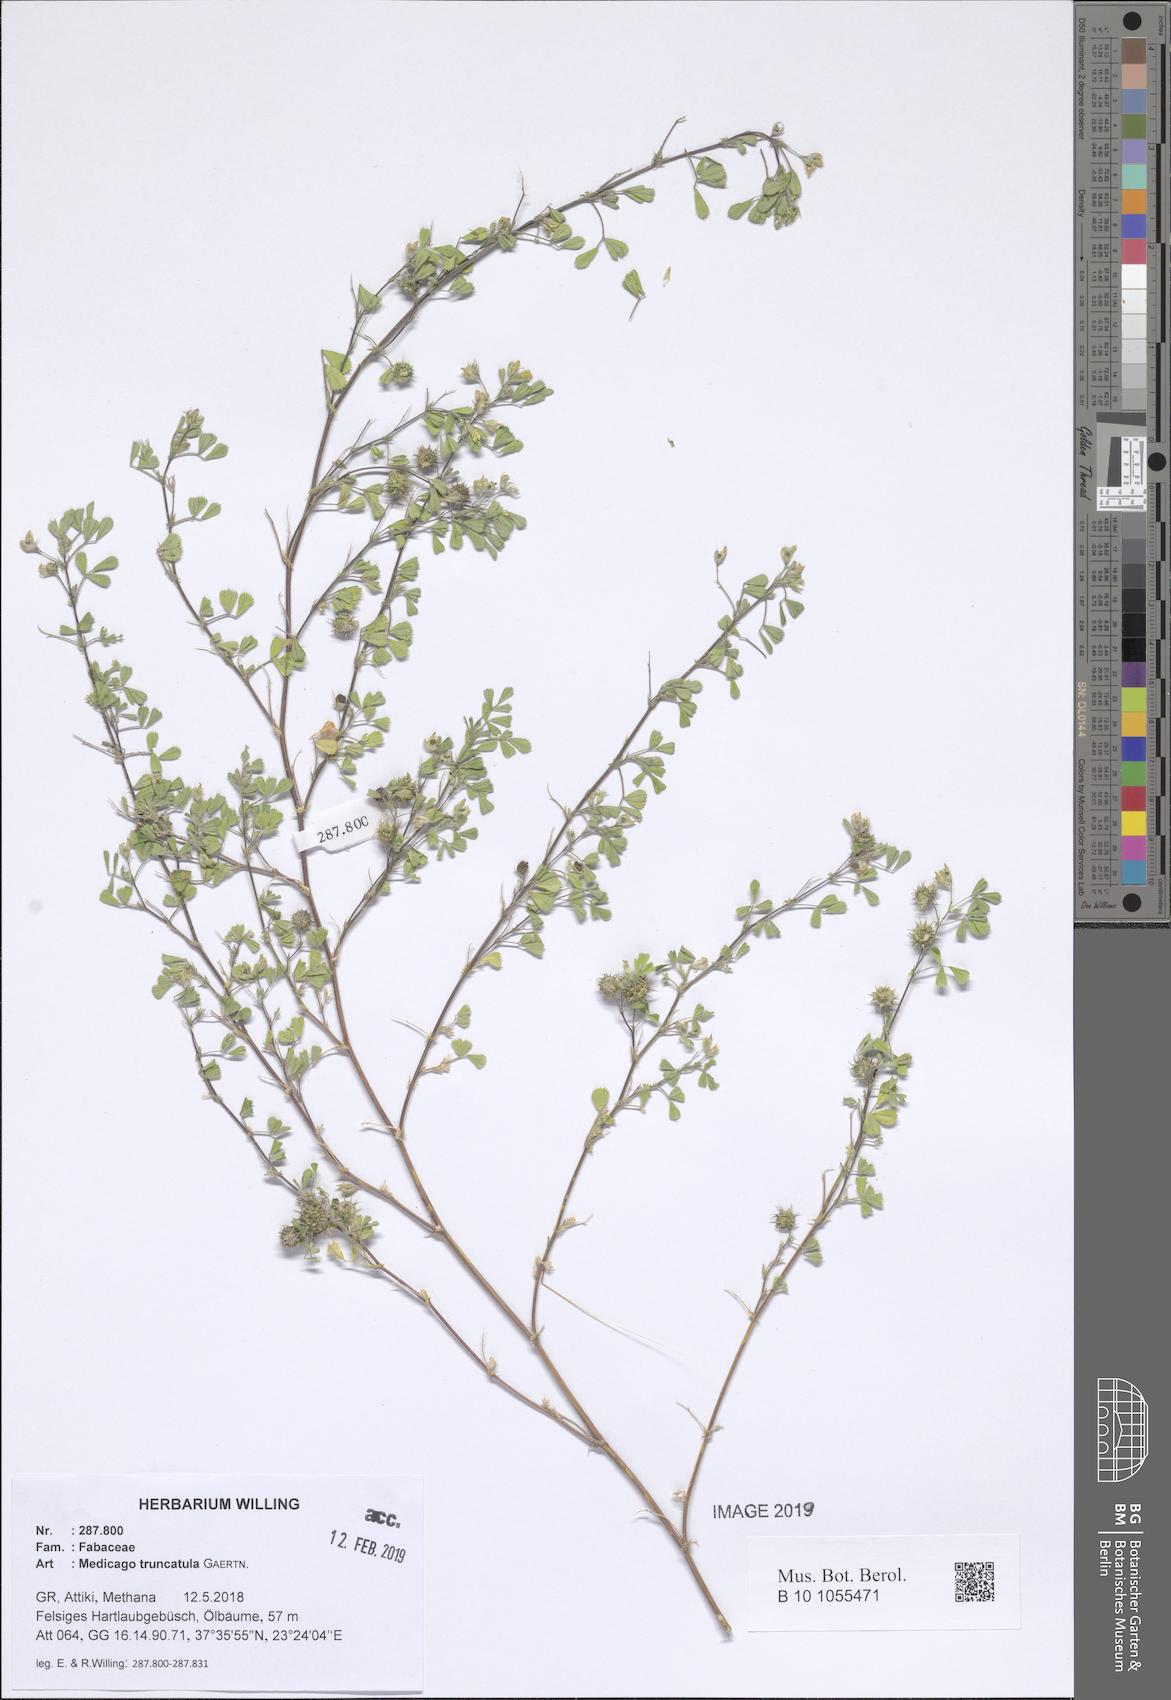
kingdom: Plantae
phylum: Tracheophyta
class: Magnoliopsida
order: Fabales
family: Fabaceae
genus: Medicago
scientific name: Medicago truncatula
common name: Strong-spined medick
